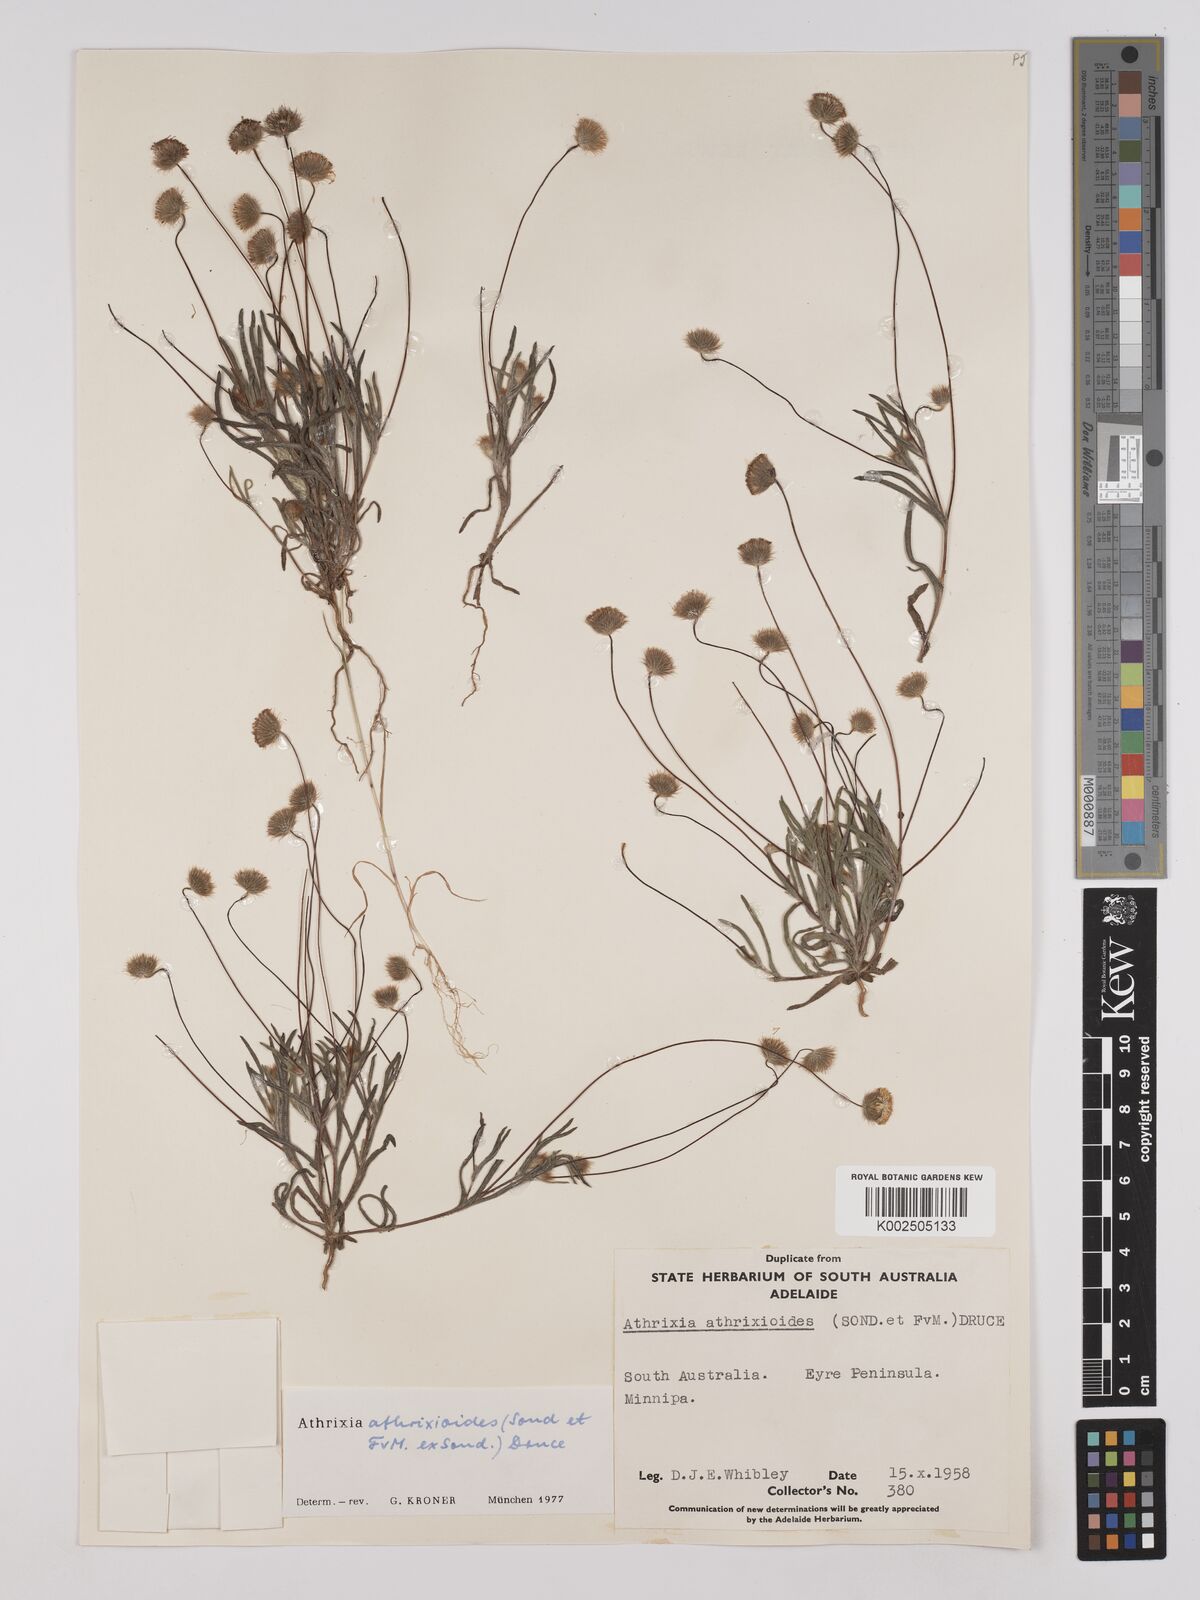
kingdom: Plantae
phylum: Tracheophyta
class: Magnoliopsida
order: Asterales
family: Asteraceae
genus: Asteridea
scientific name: Asteridea athrixioides
